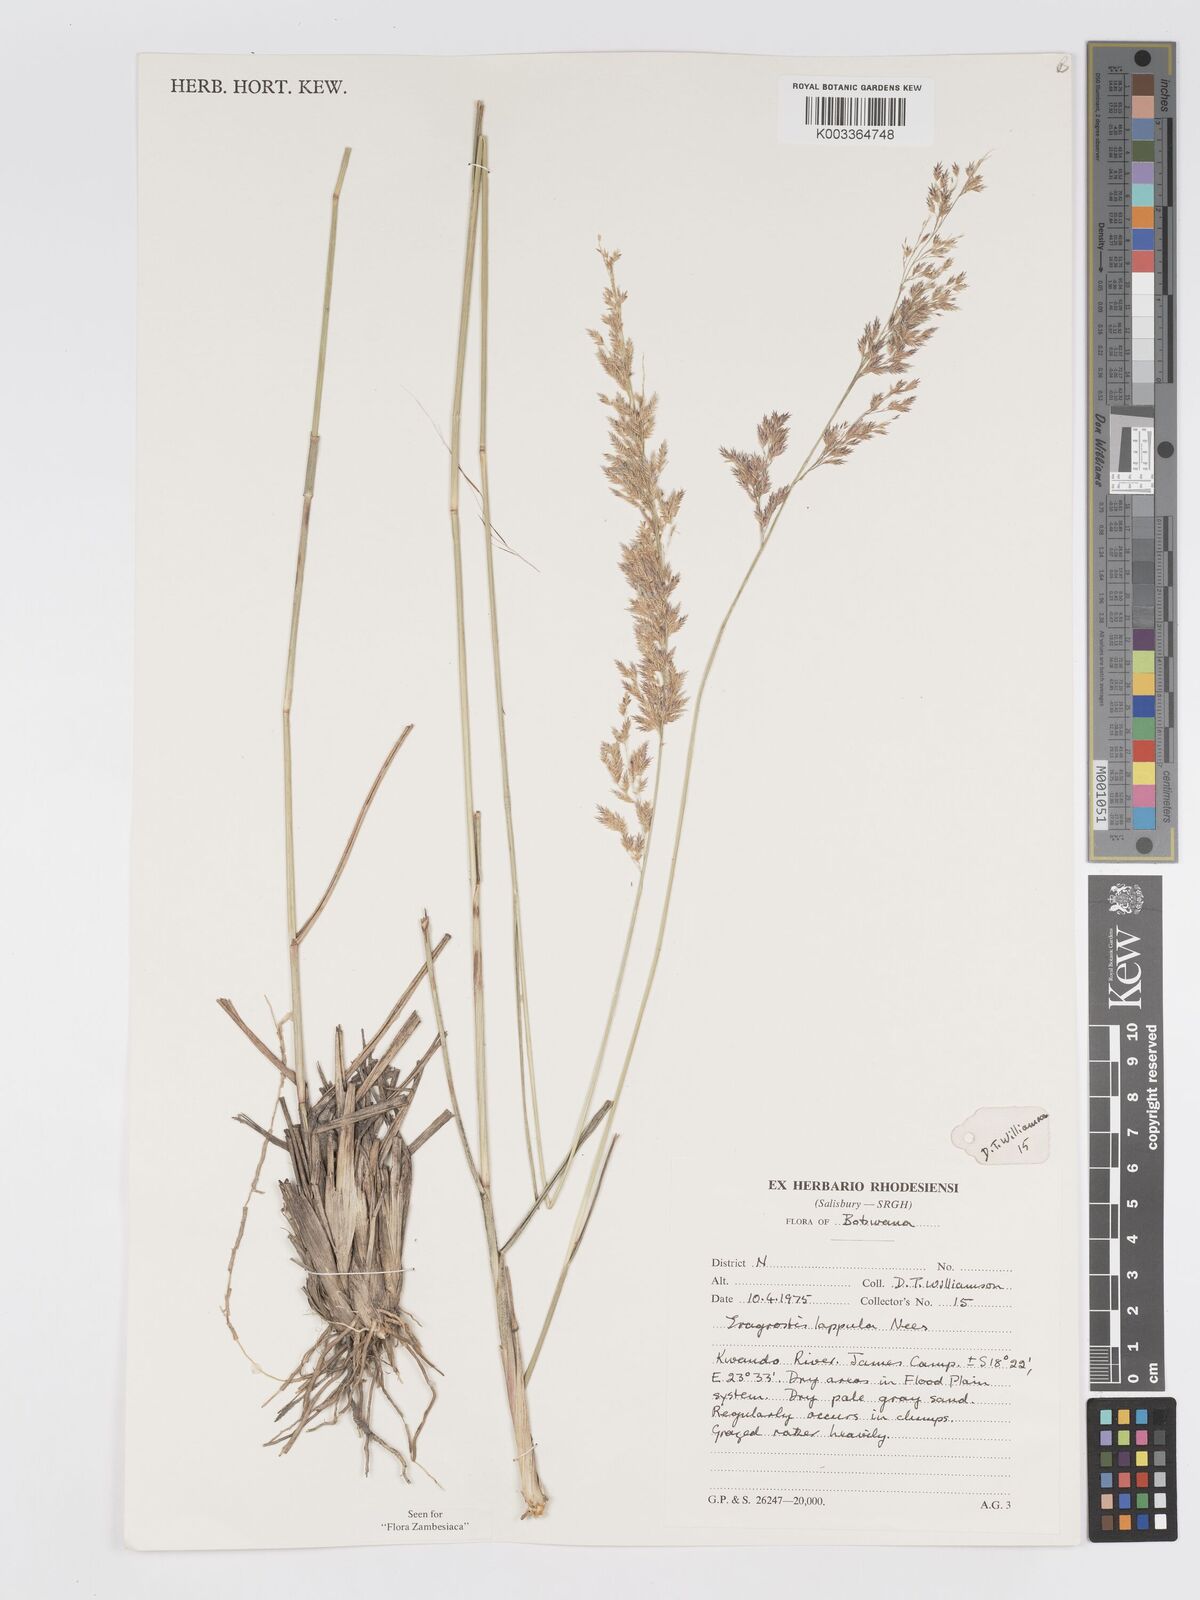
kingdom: Plantae
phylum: Tracheophyta
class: Liliopsida
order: Poales
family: Poaceae
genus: Eragrostis
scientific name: Eragrostis lappula
